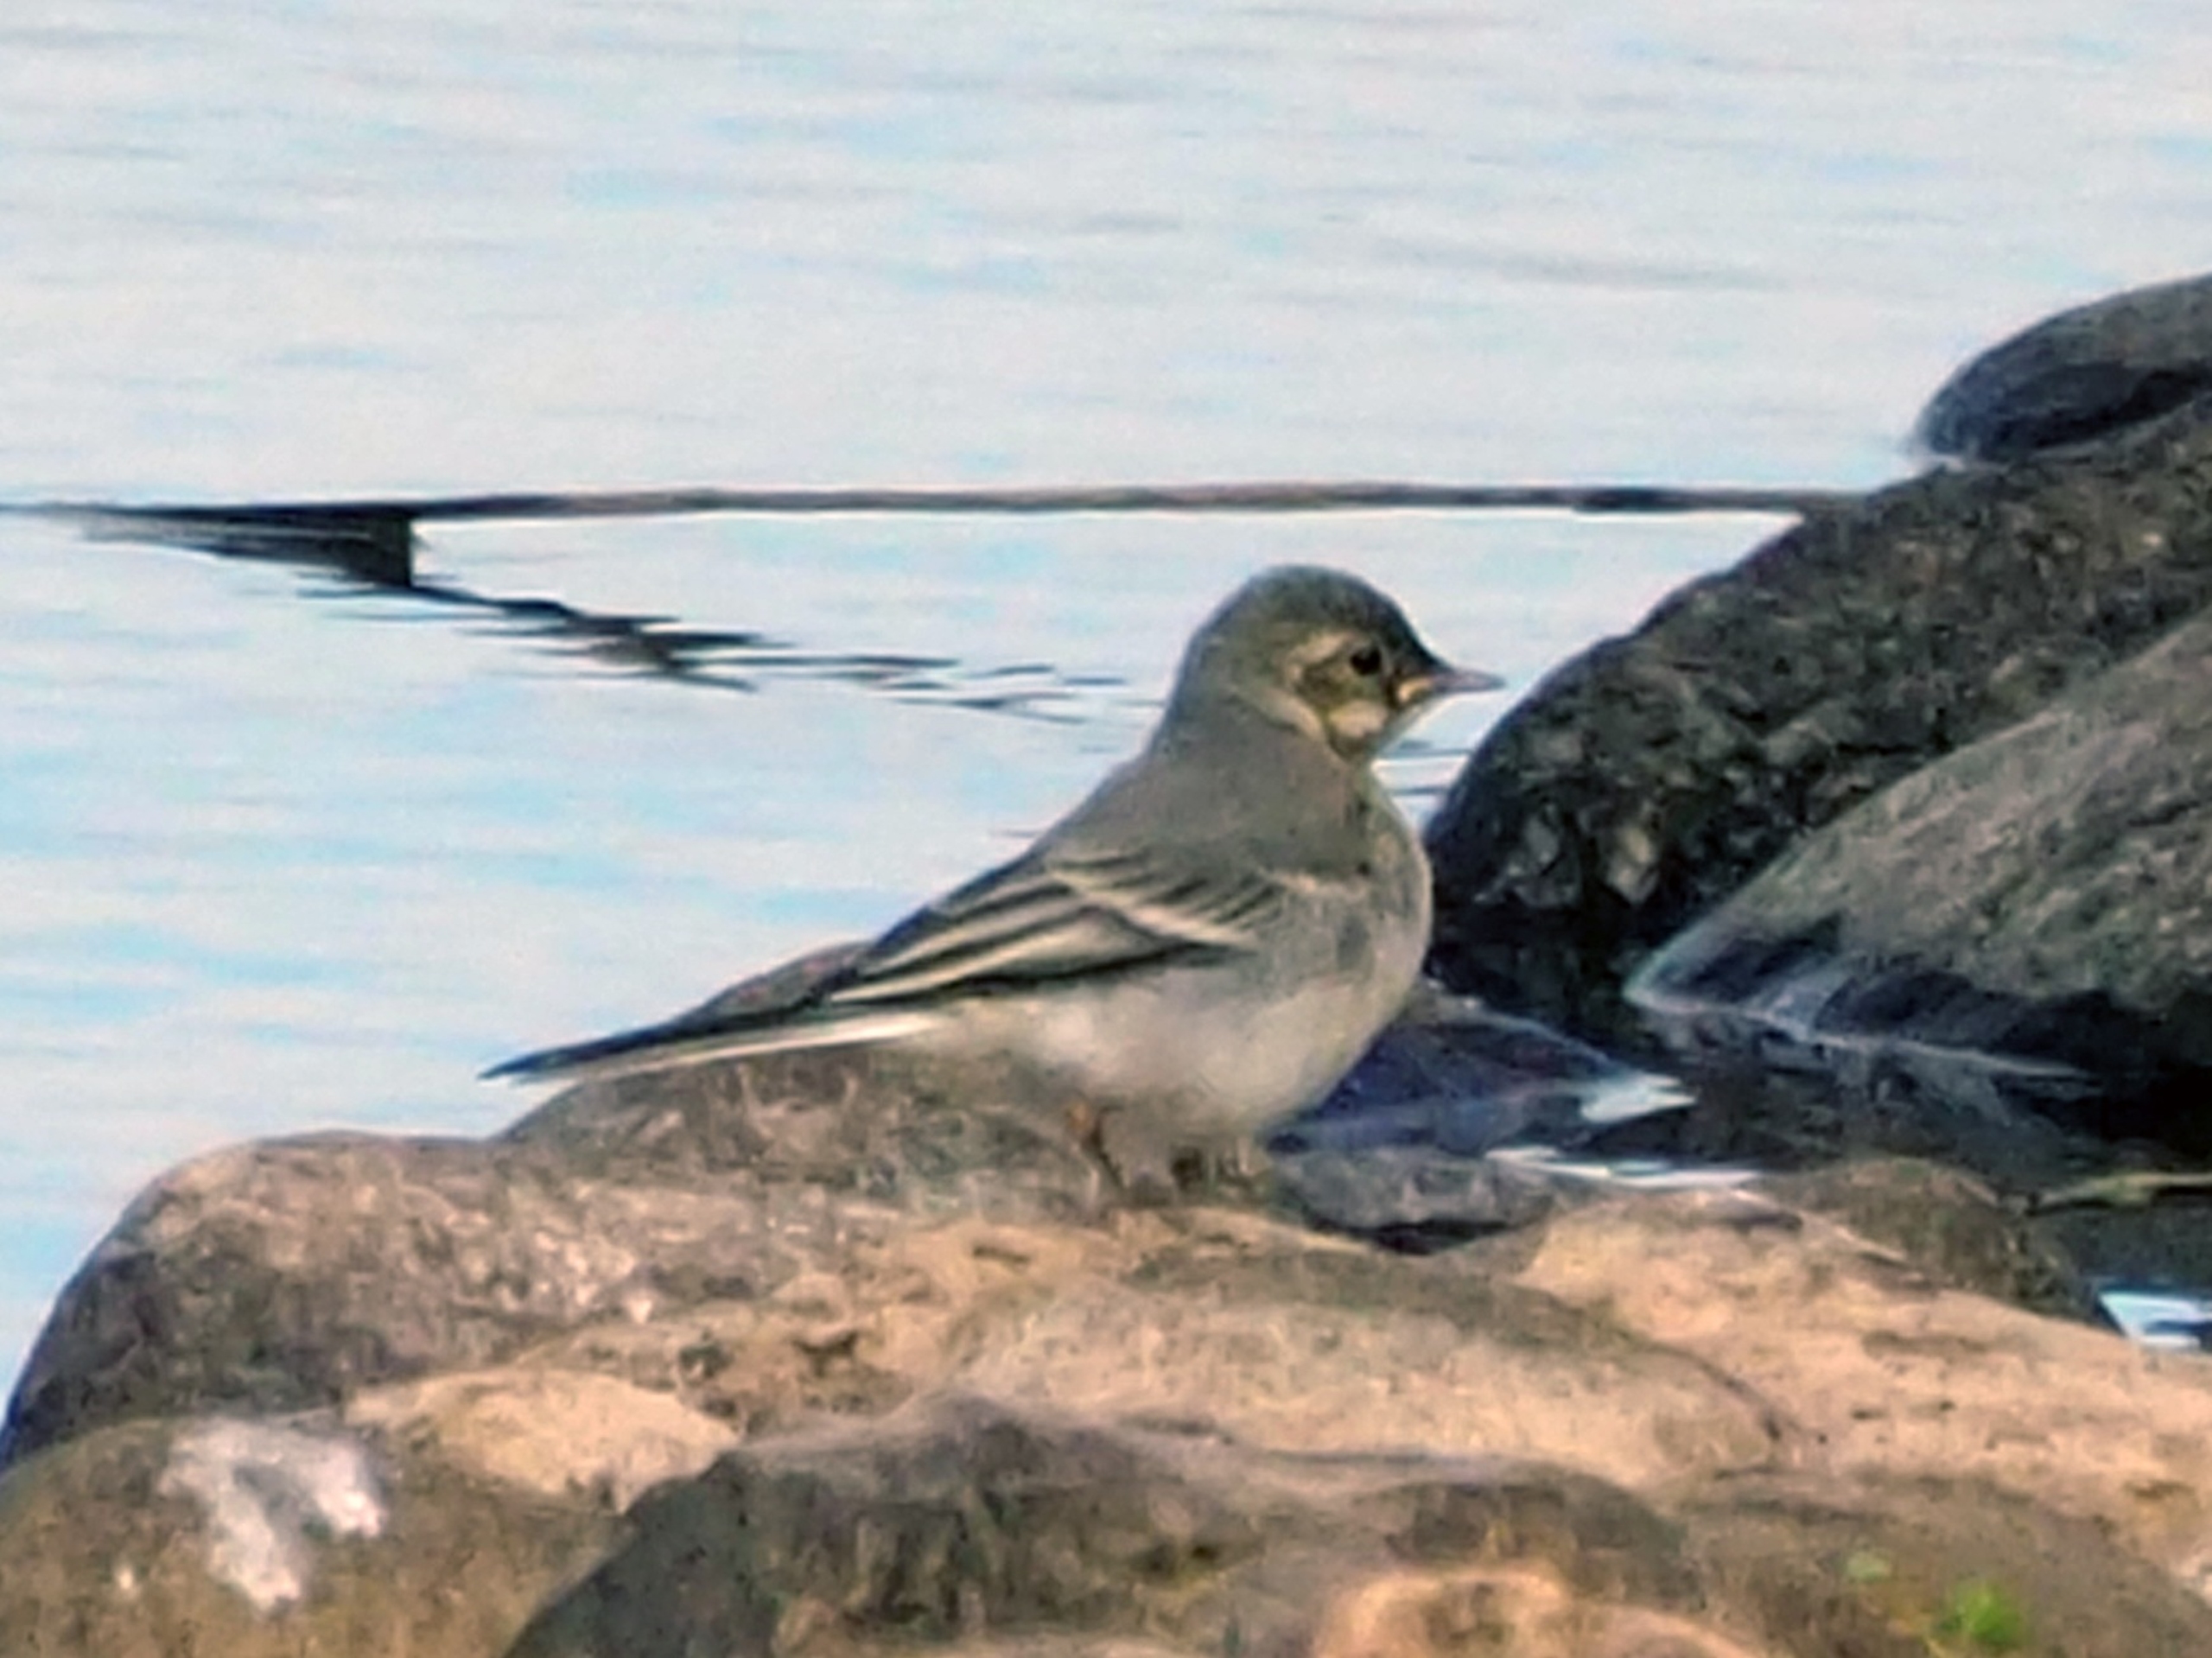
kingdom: Animalia
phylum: Chordata
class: Aves
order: Passeriformes
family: Motacillidae
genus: Motacilla
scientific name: Motacilla alba
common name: Hvid vipstjert
